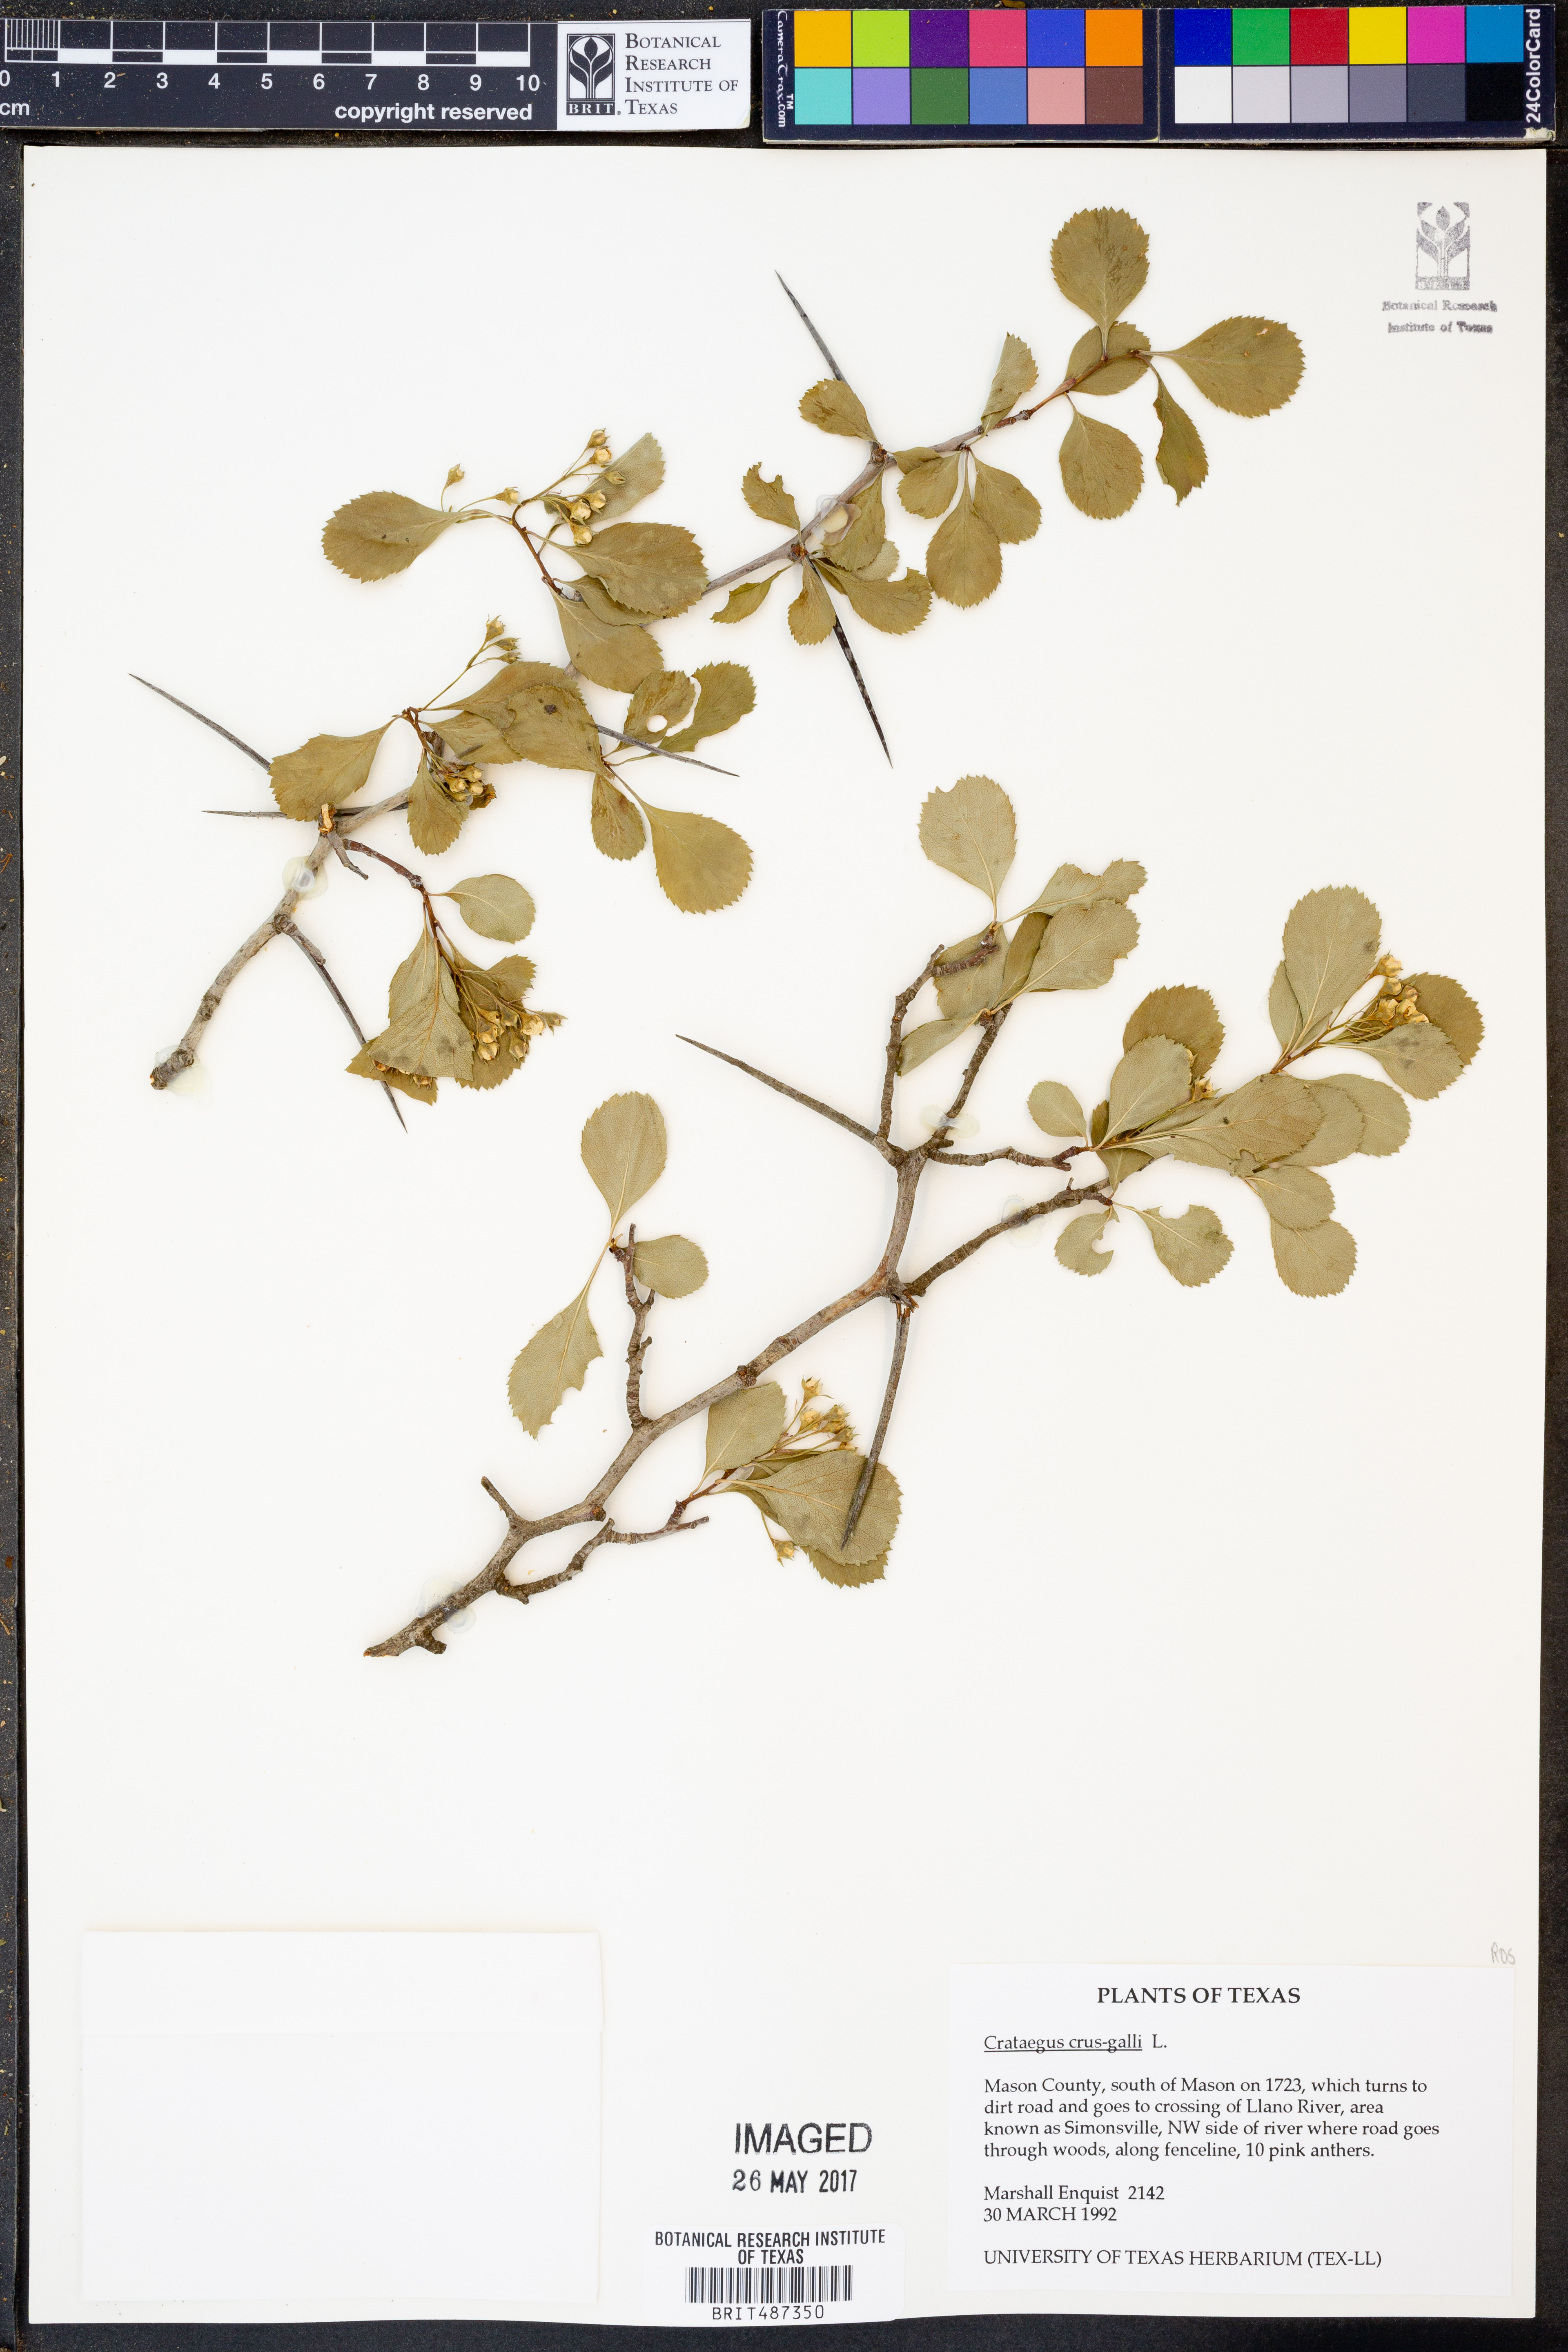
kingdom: Plantae
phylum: Tracheophyta
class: Magnoliopsida
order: Rosales
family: Rosaceae
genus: Crataegus
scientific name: Crataegus crus-galli
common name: Cockspurthorn
